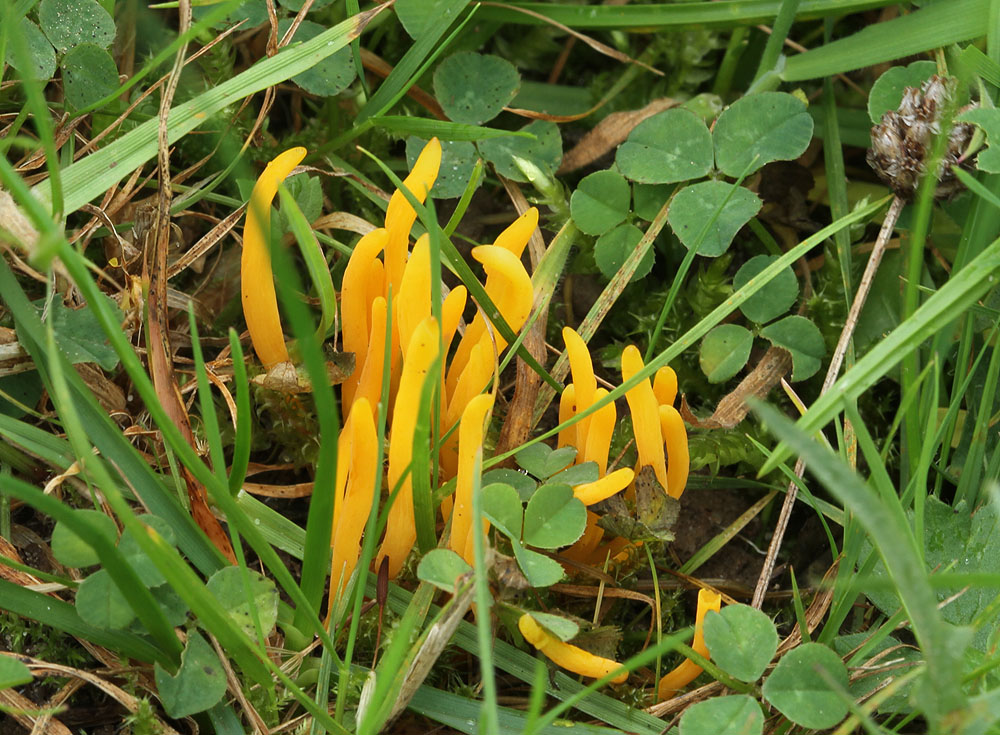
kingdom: Fungi
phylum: Basidiomycota
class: Agaricomycetes
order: Agaricales
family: Clavariaceae
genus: Clavulinopsis
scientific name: Clavulinopsis laeticolor
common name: flamme-køllesvamp
